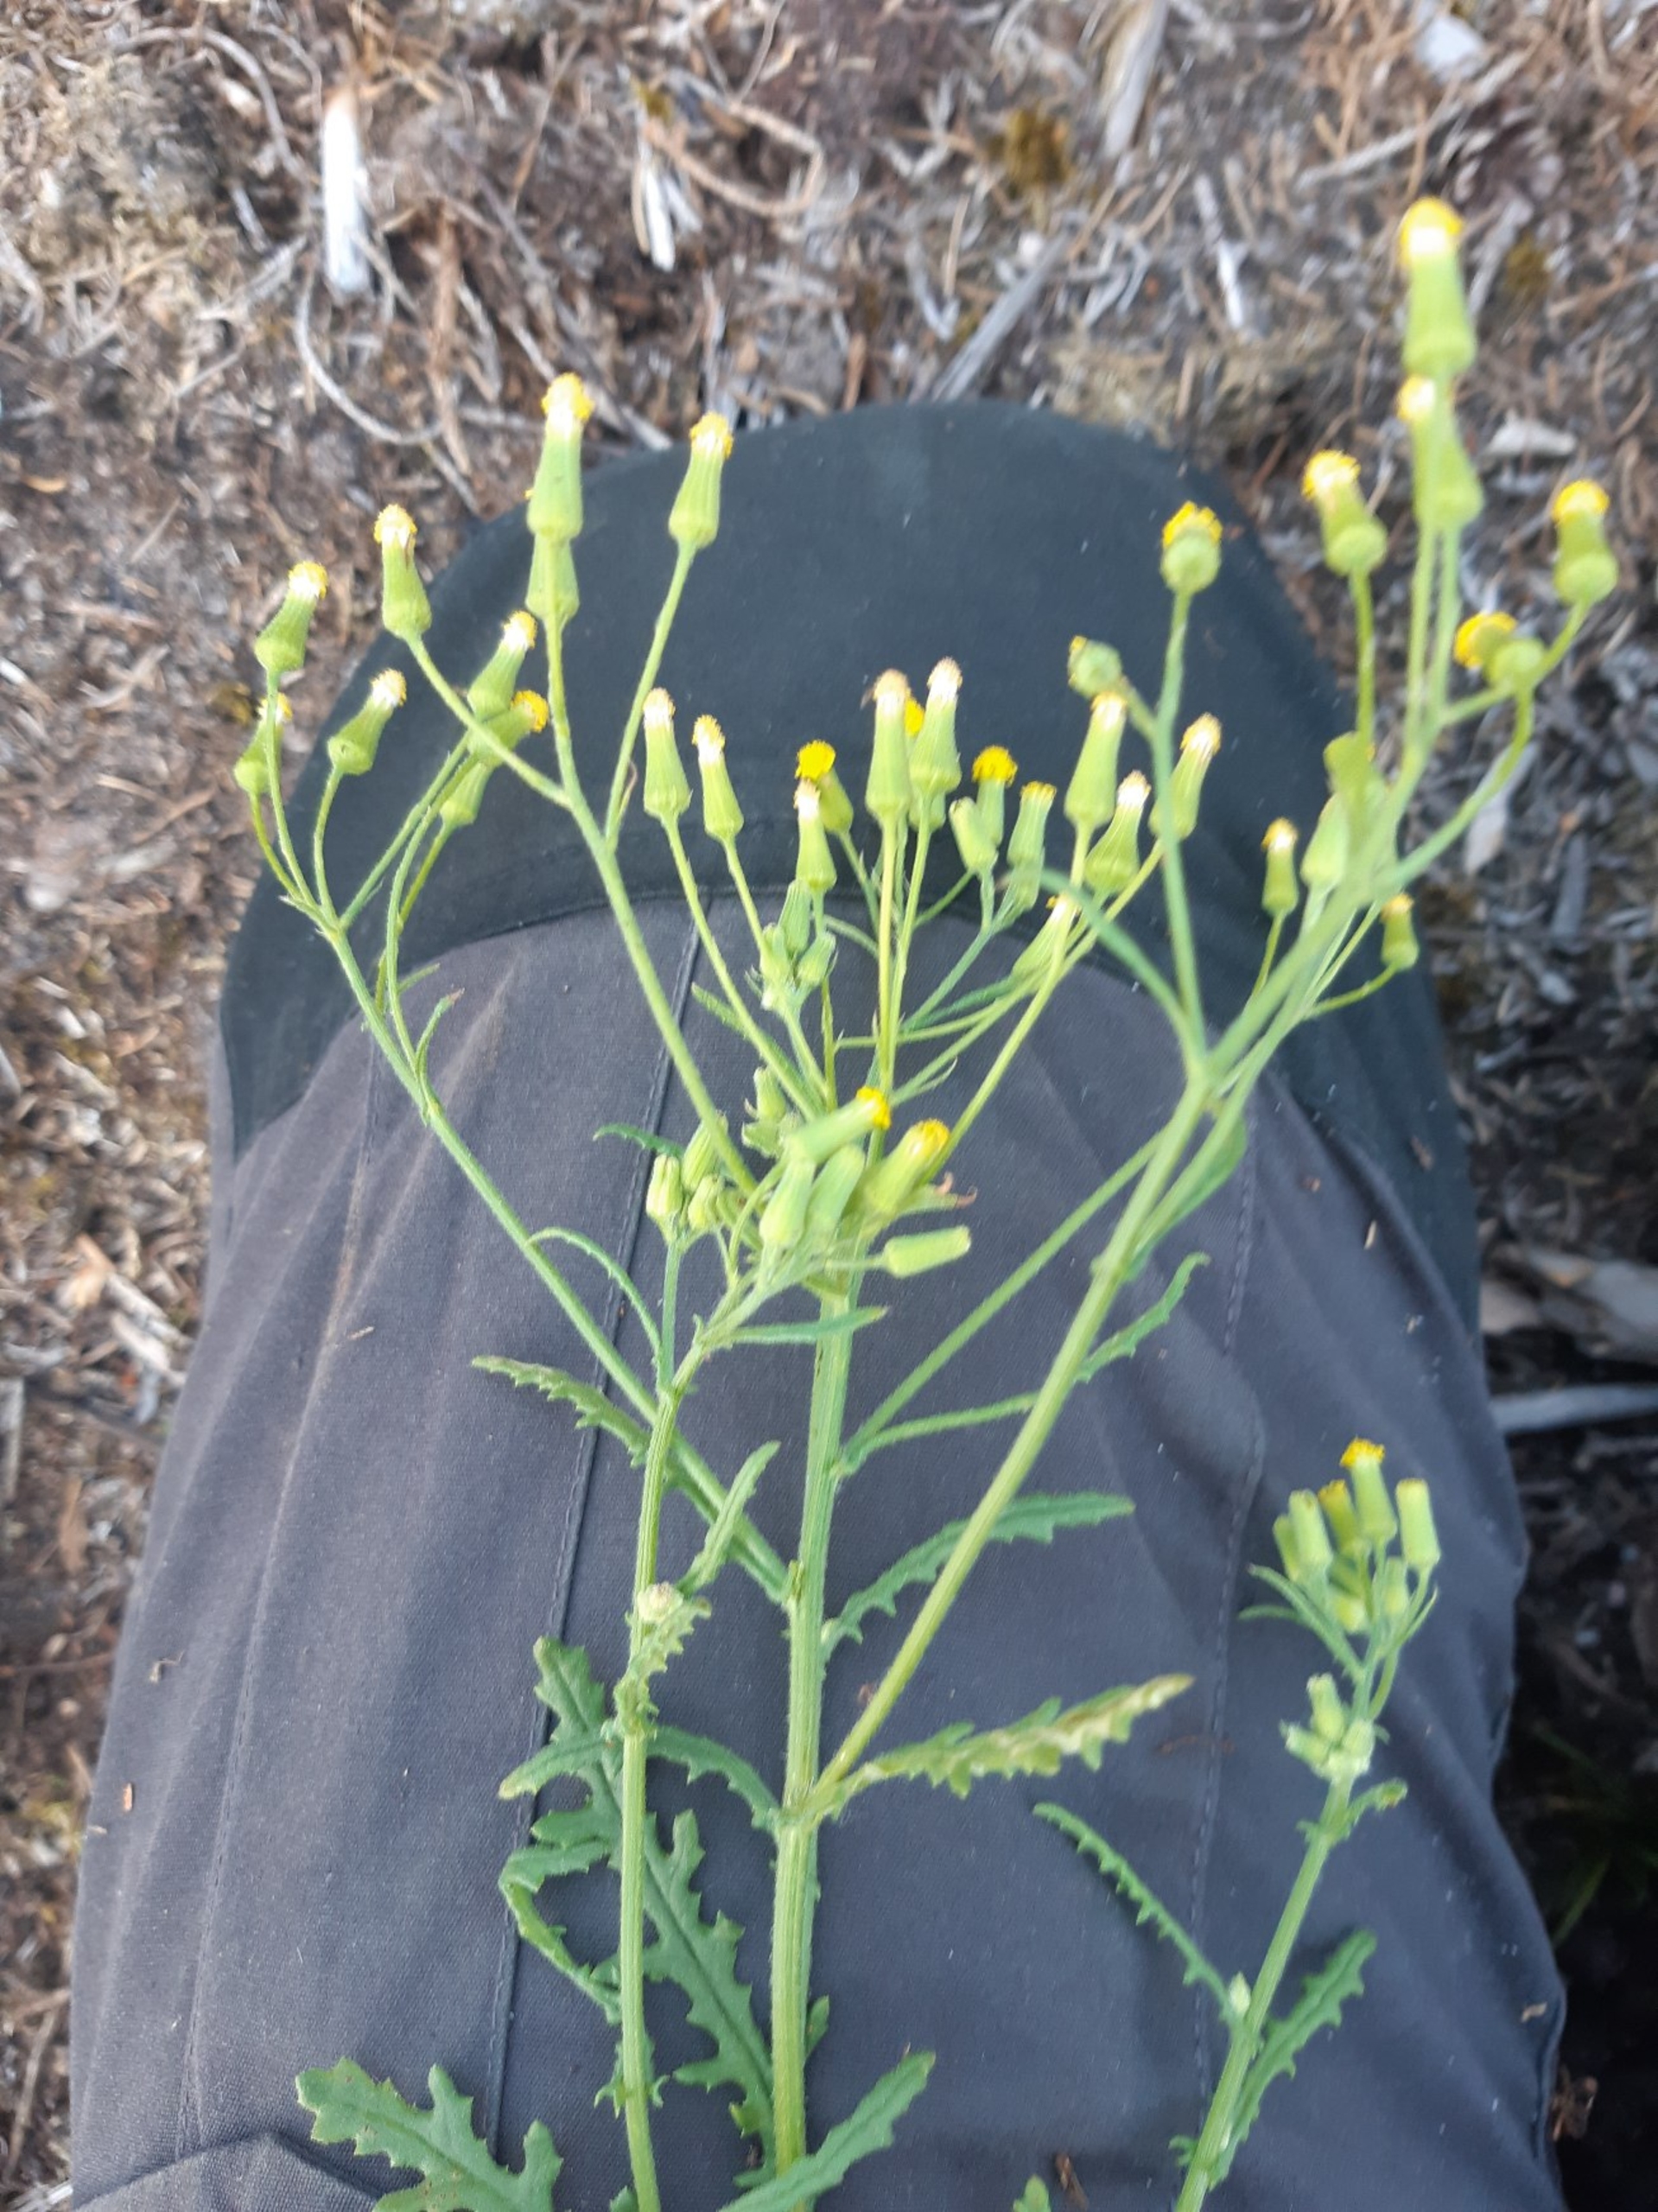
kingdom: Plantae
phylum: Tracheophyta
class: Magnoliopsida
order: Asterales
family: Asteraceae
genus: Senecio
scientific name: Senecio sylvaticus
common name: Skov-brandbæger
